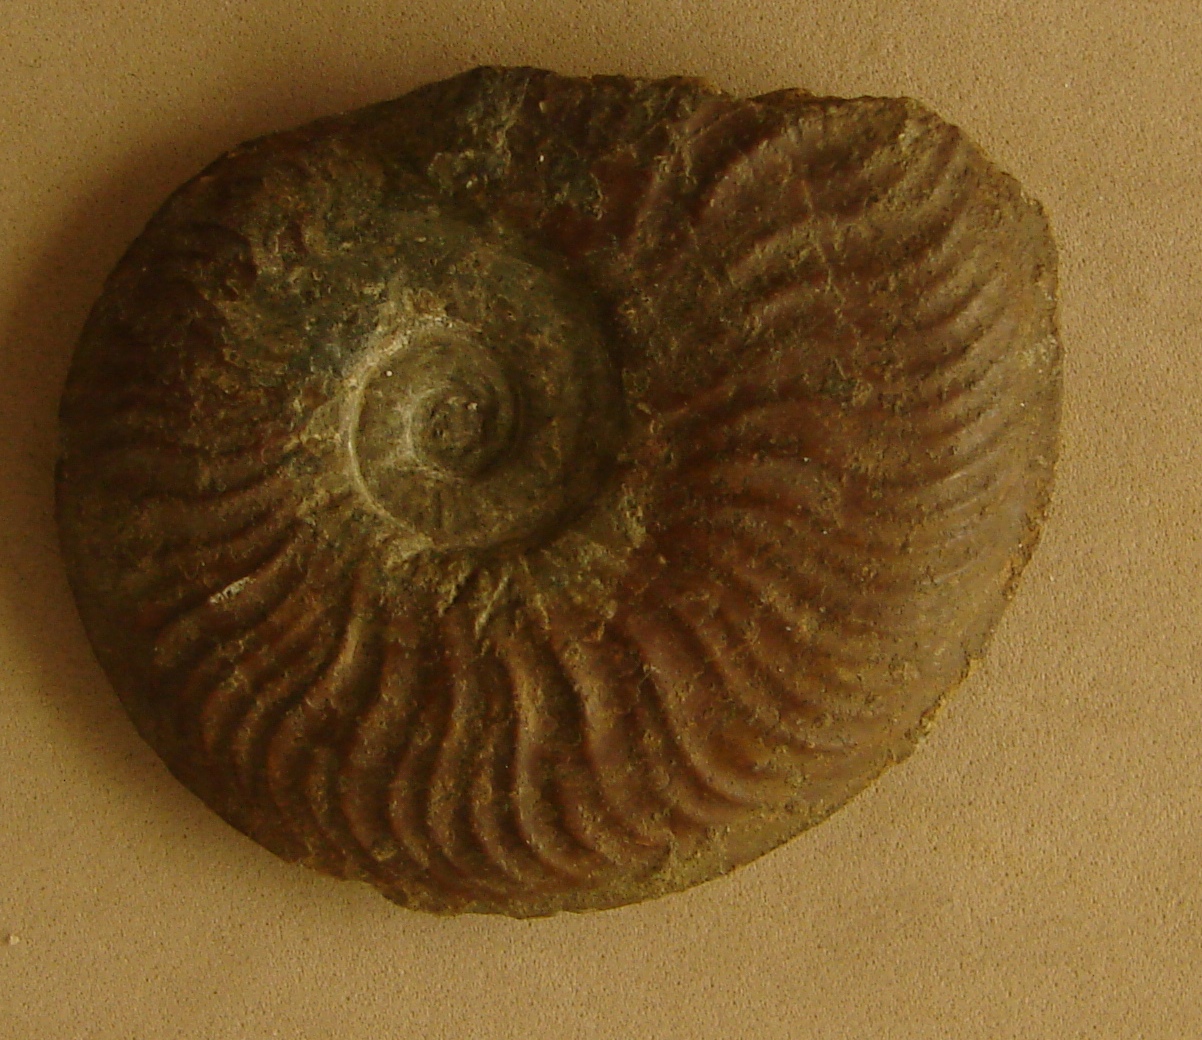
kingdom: Animalia
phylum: Mollusca
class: Cephalopoda
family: Hildoceratidae
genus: Pleydellia
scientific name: Pleydellia
